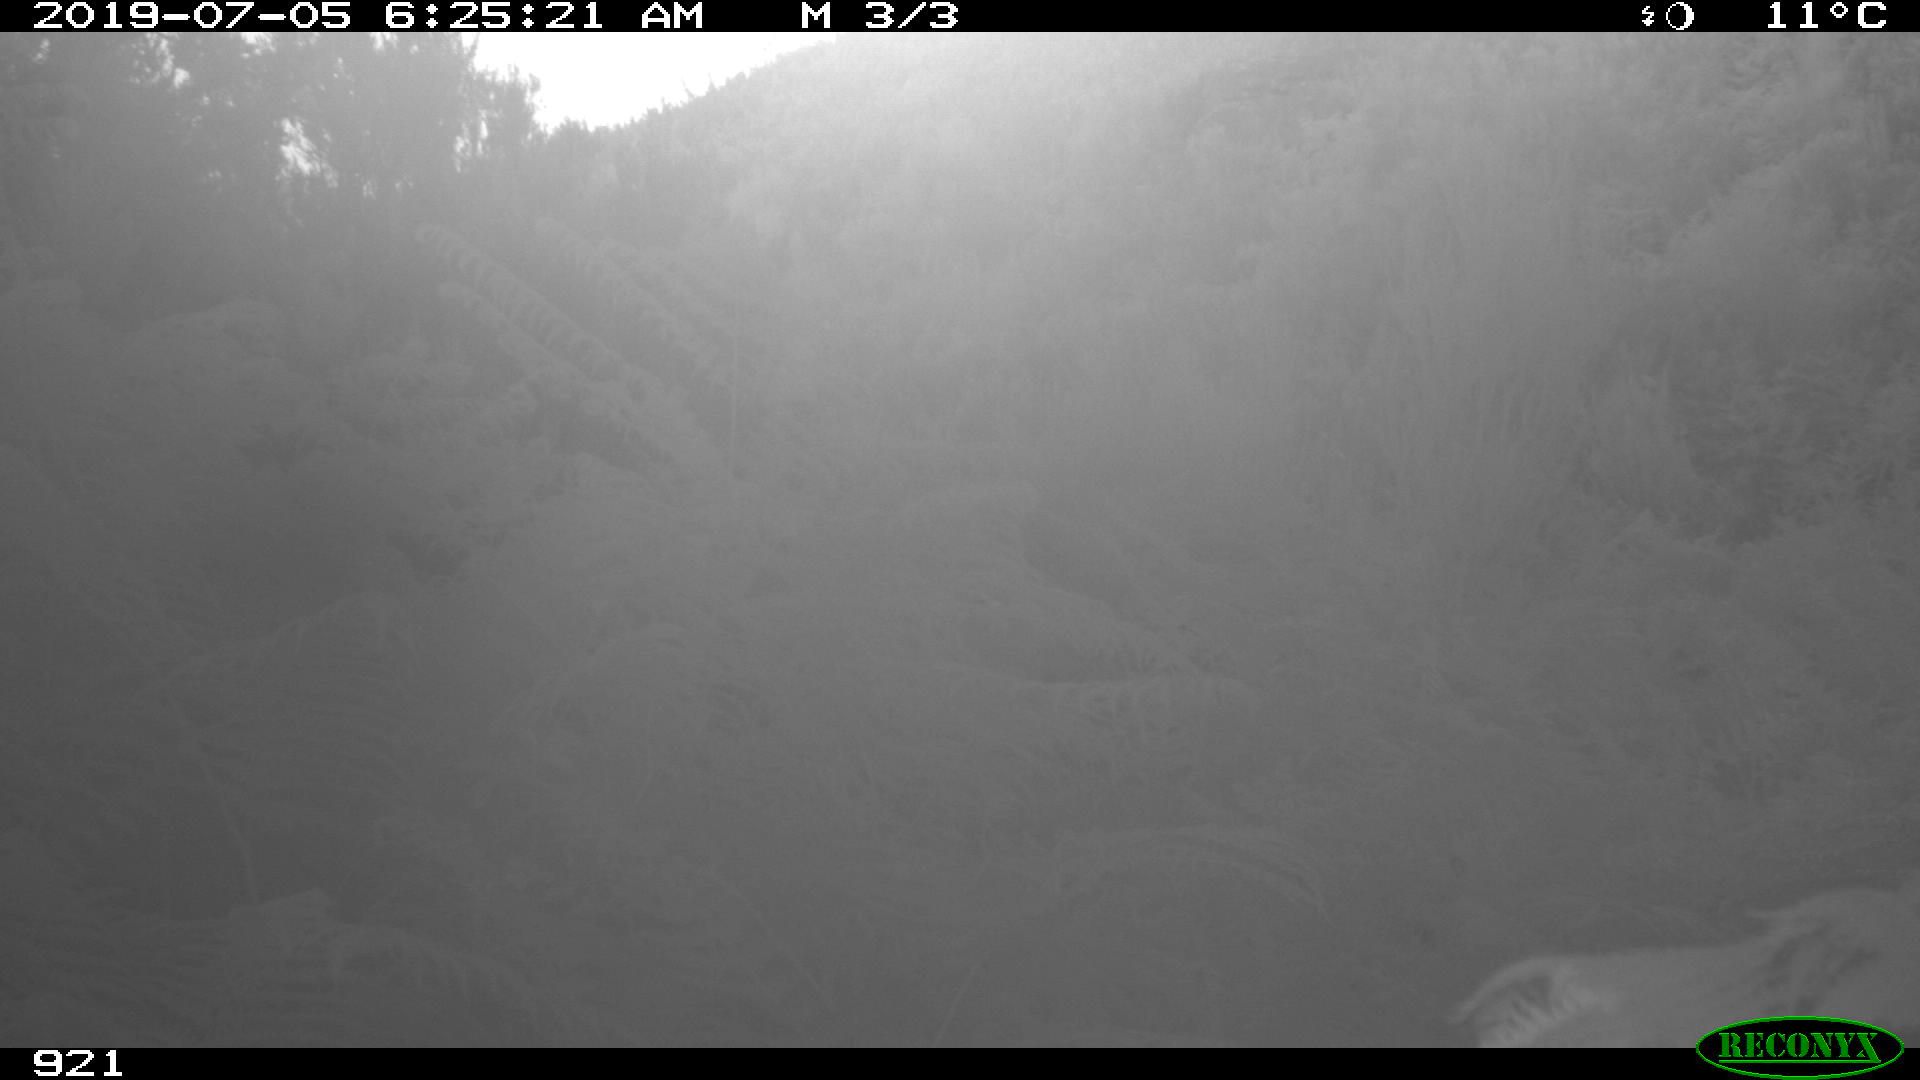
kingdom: Animalia
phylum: Chordata
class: Mammalia
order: Perissodactyla
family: Equidae
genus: Equus
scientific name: Equus caballus
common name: Horse
